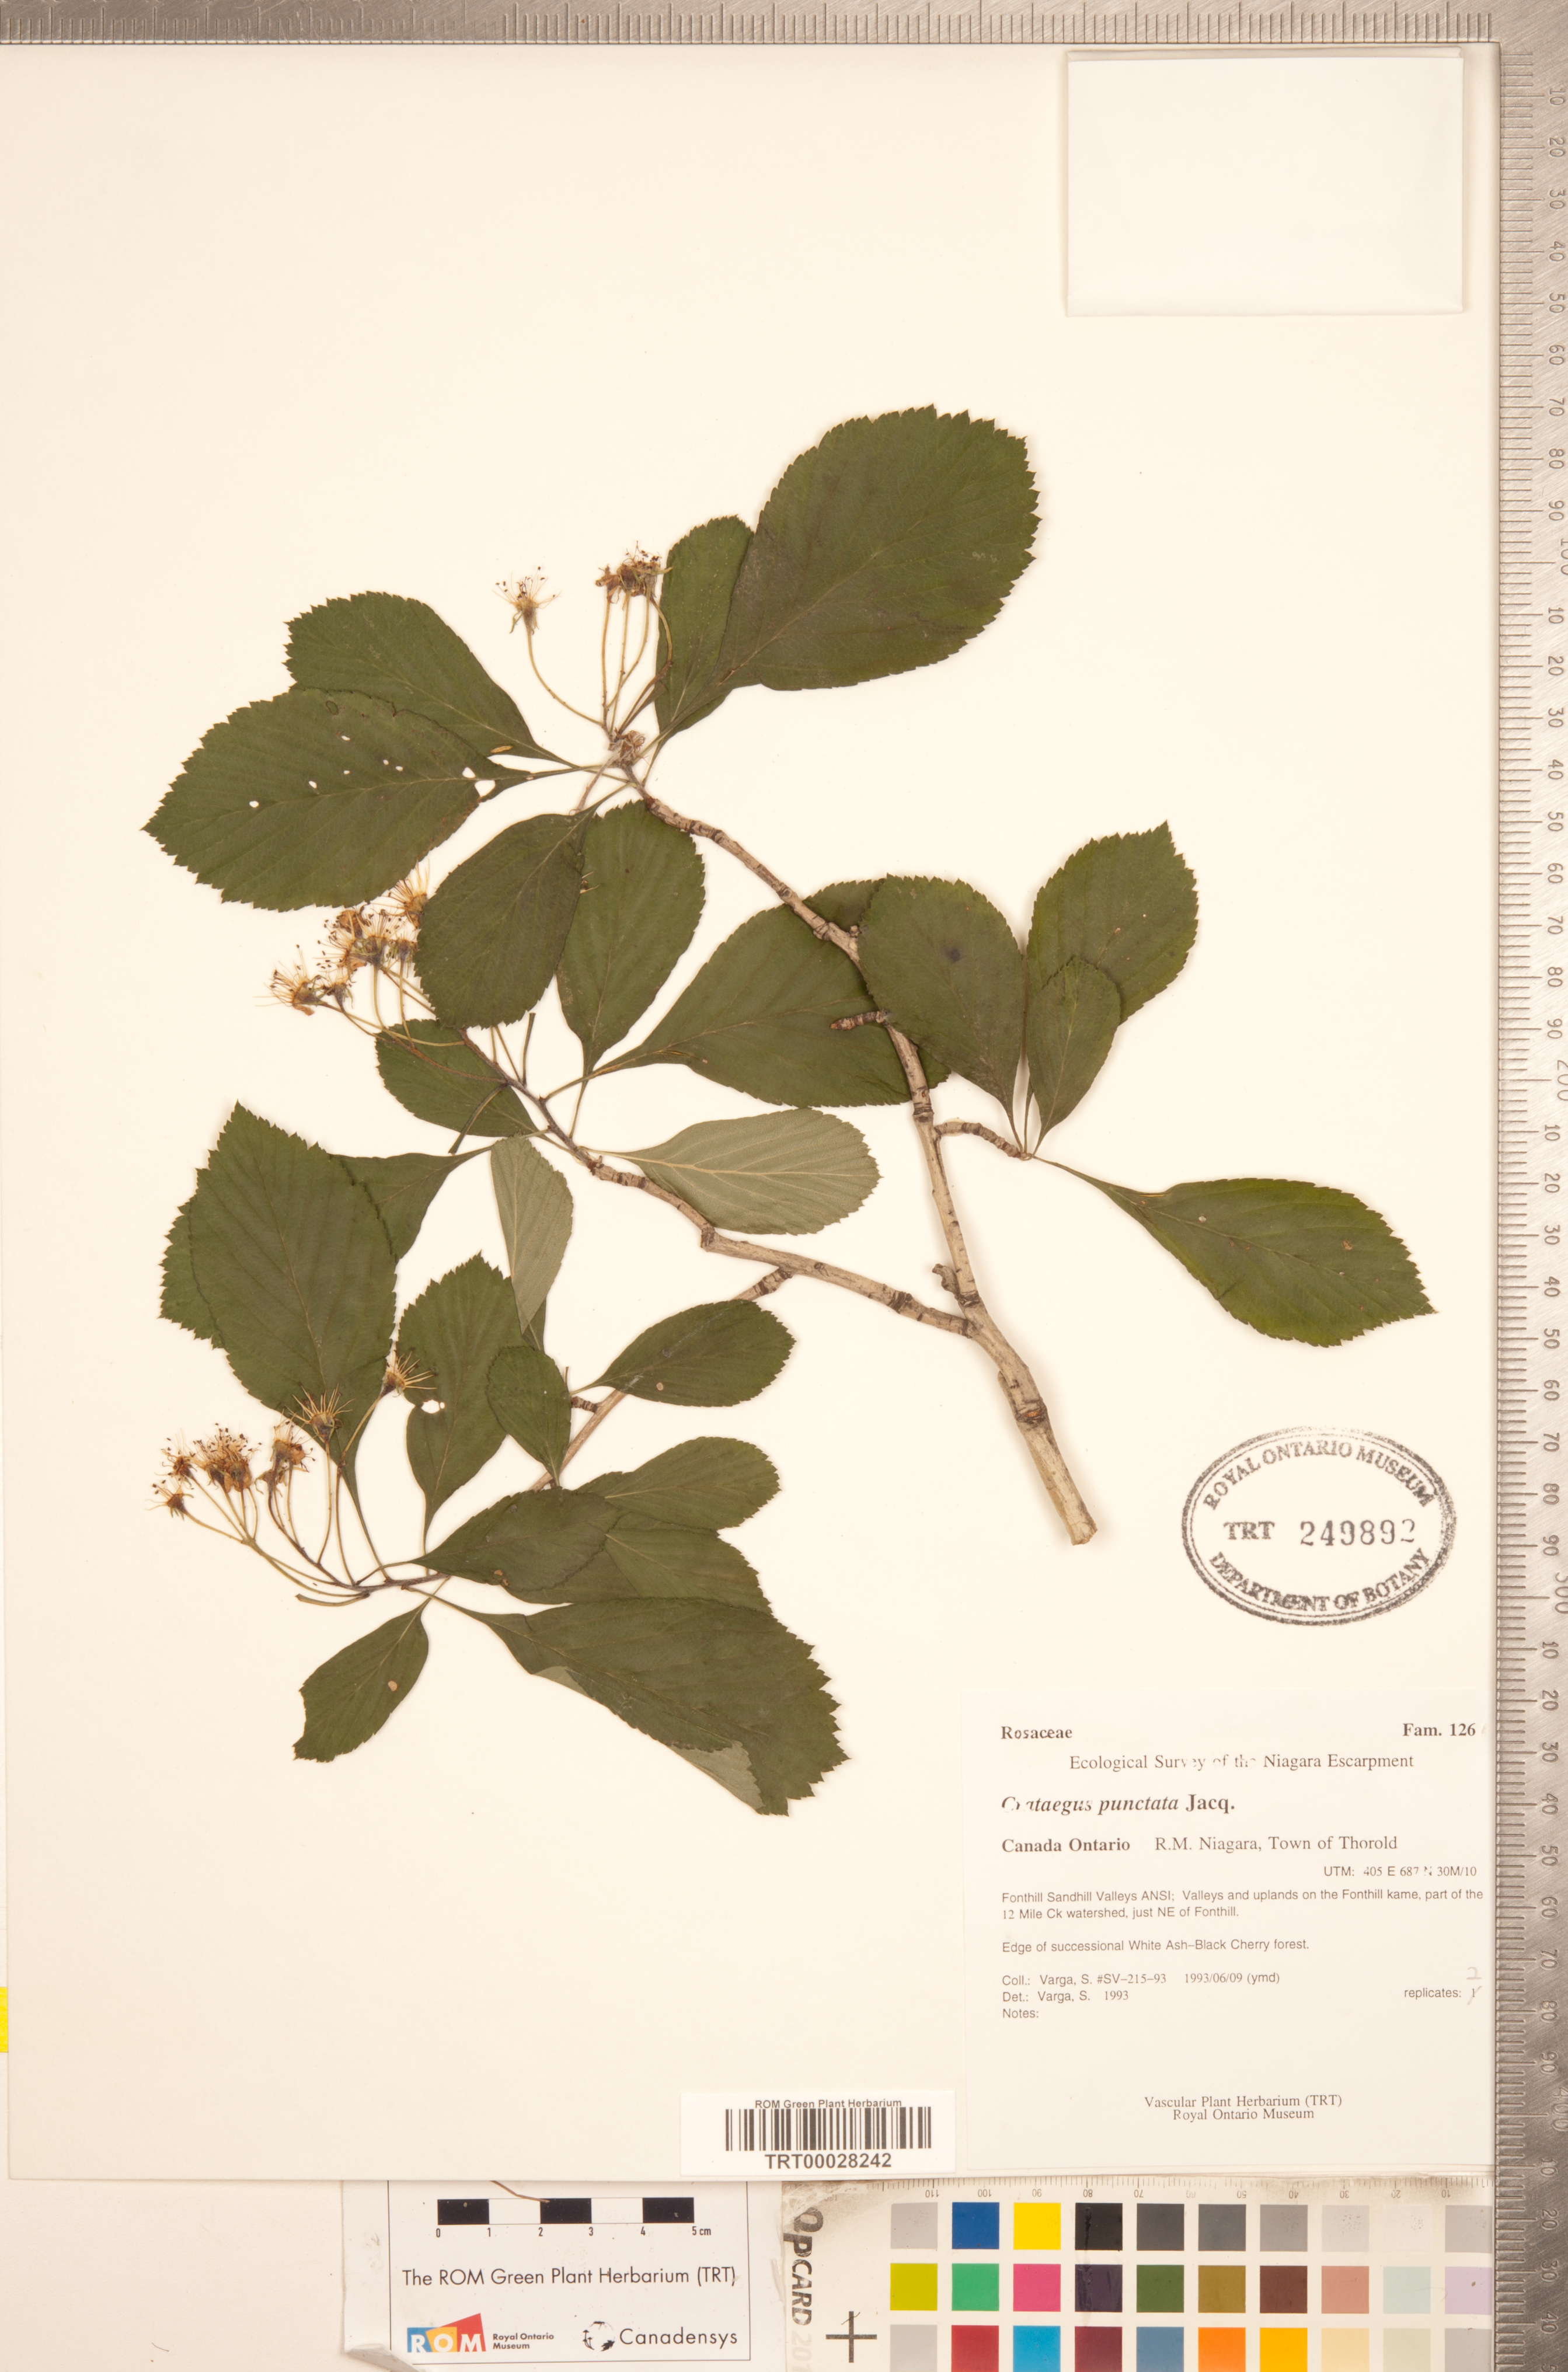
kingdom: Plantae
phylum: Tracheophyta
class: Magnoliopsida
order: Rosales
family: Rosaceae
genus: Crataegus
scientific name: Crataegus punctata
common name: Dotted hawthorn
